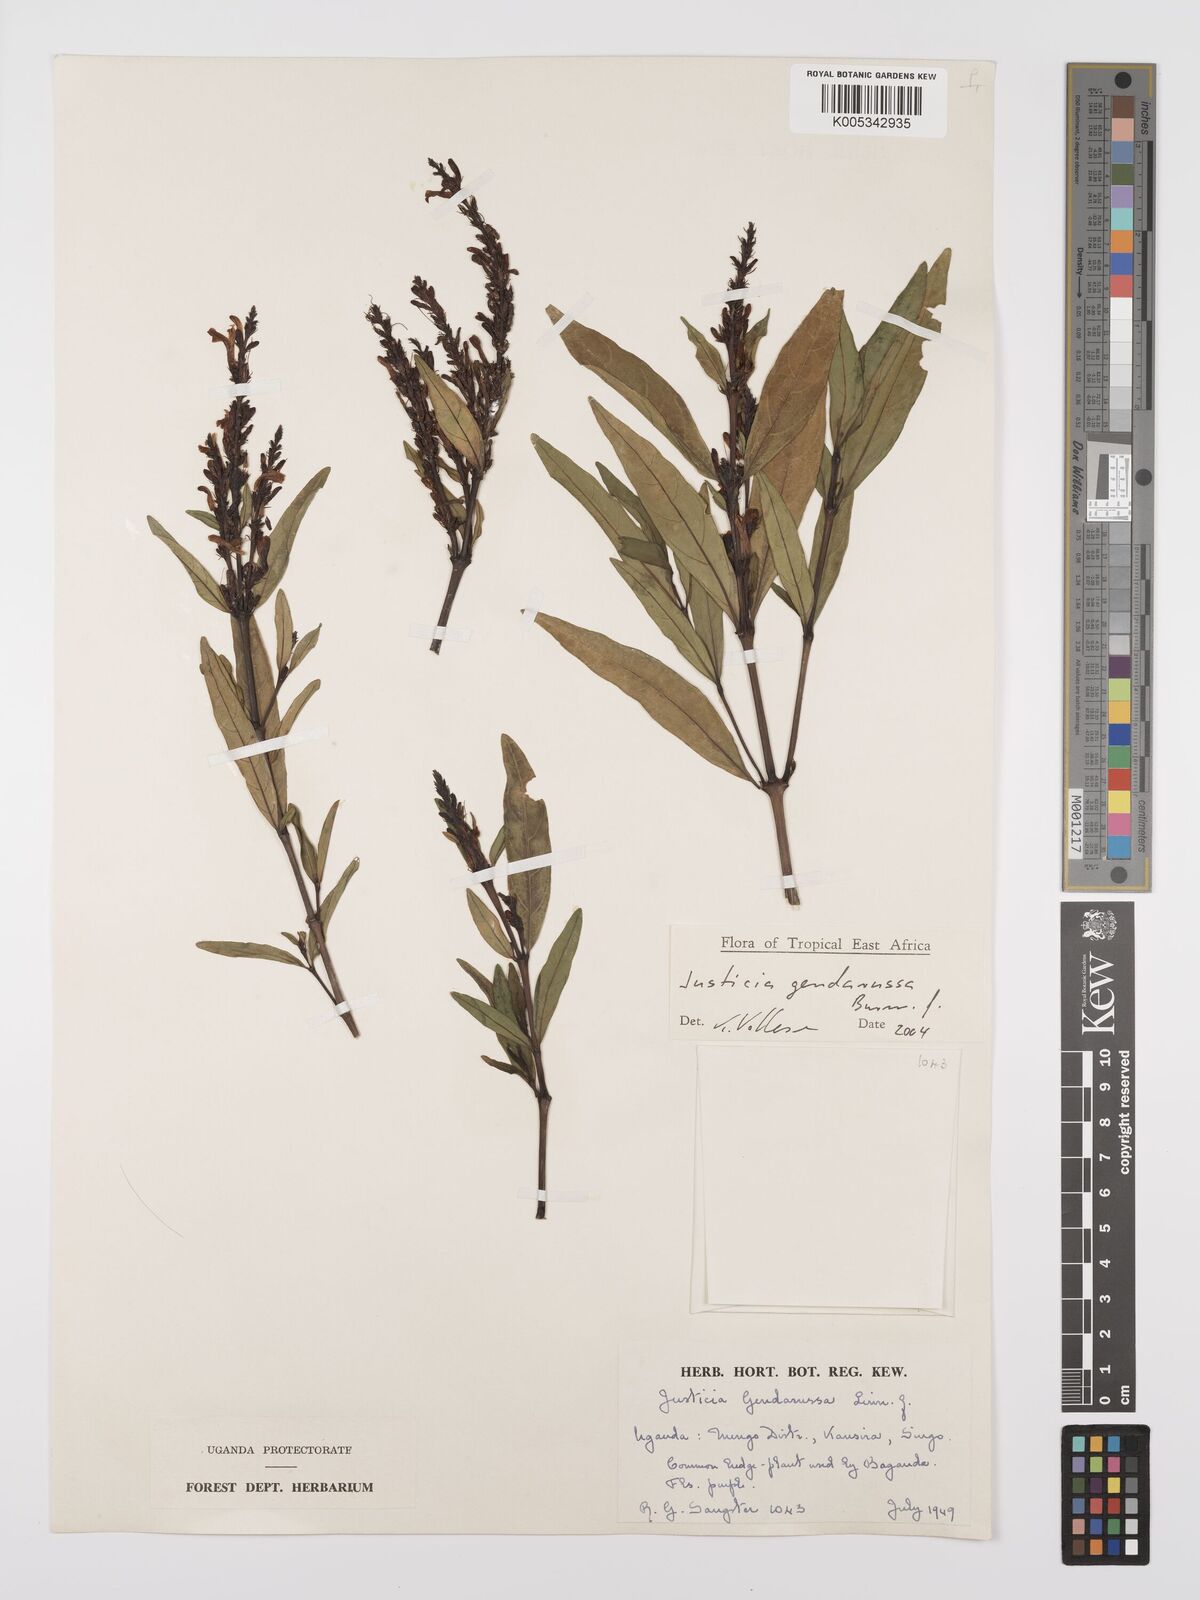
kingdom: Plantae
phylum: Tracheophyta
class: Magnoliopsida
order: Lamiales
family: Acanthaceae
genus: Justicia
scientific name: Justicia
